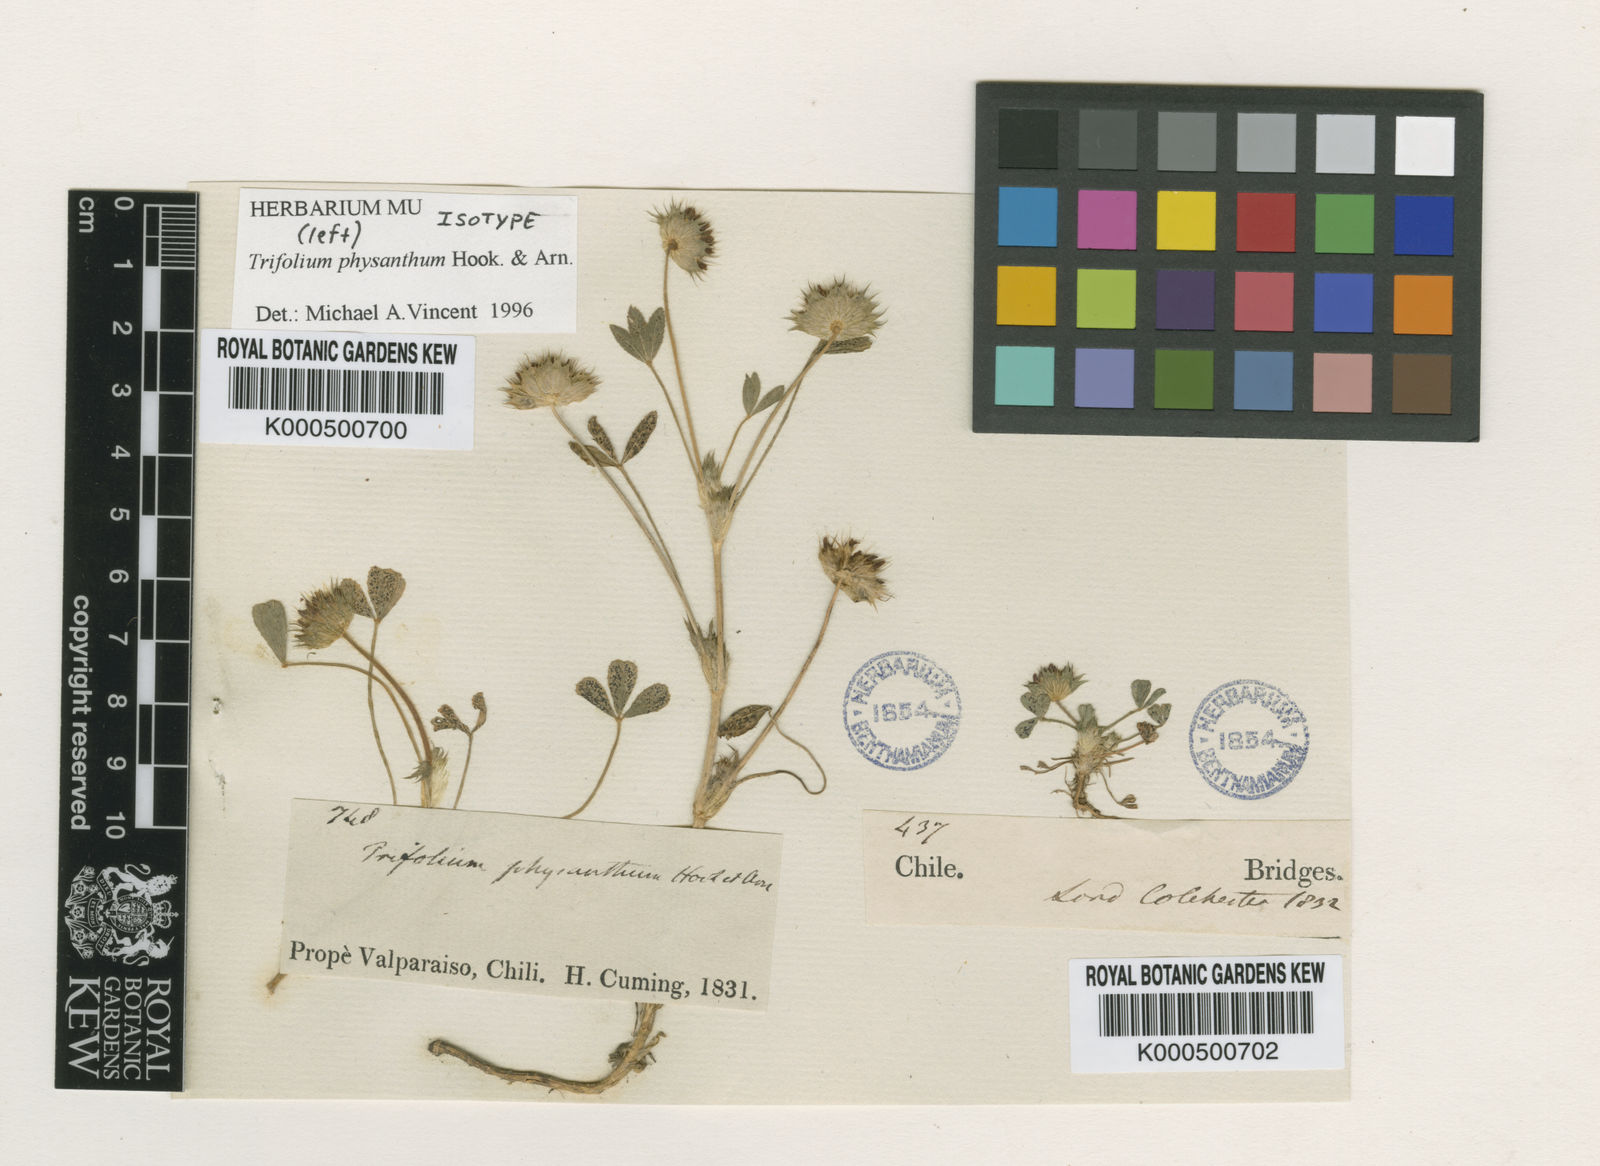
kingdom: Plantae
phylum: Tracheophyta
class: Magnoliopsida
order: Fabales
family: Fabaceae
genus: Trifolium
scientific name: Trifolium physanthum
